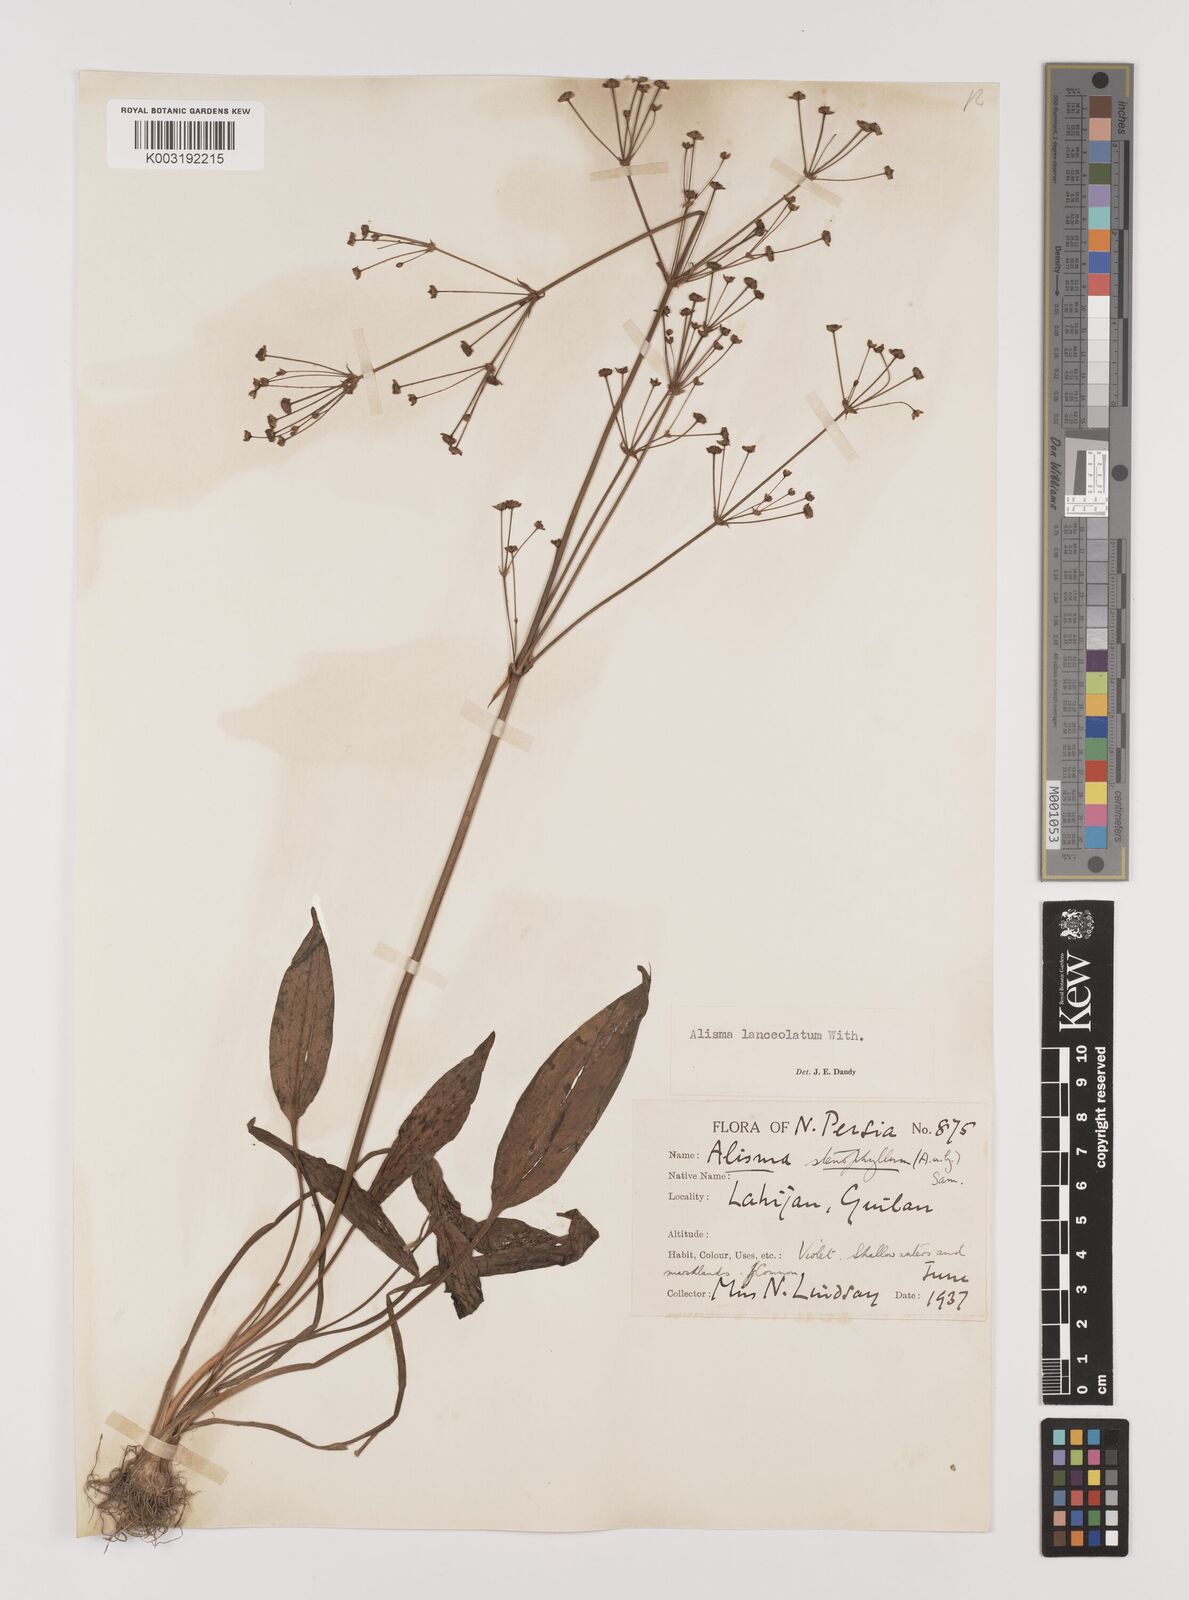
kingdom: Plantae
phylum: Tracheophyta
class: Liliopsida
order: Alismatales
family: Alismataceae
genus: Alisma
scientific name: Alisma lanceolatum
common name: Narrow-leaved water-plantain
